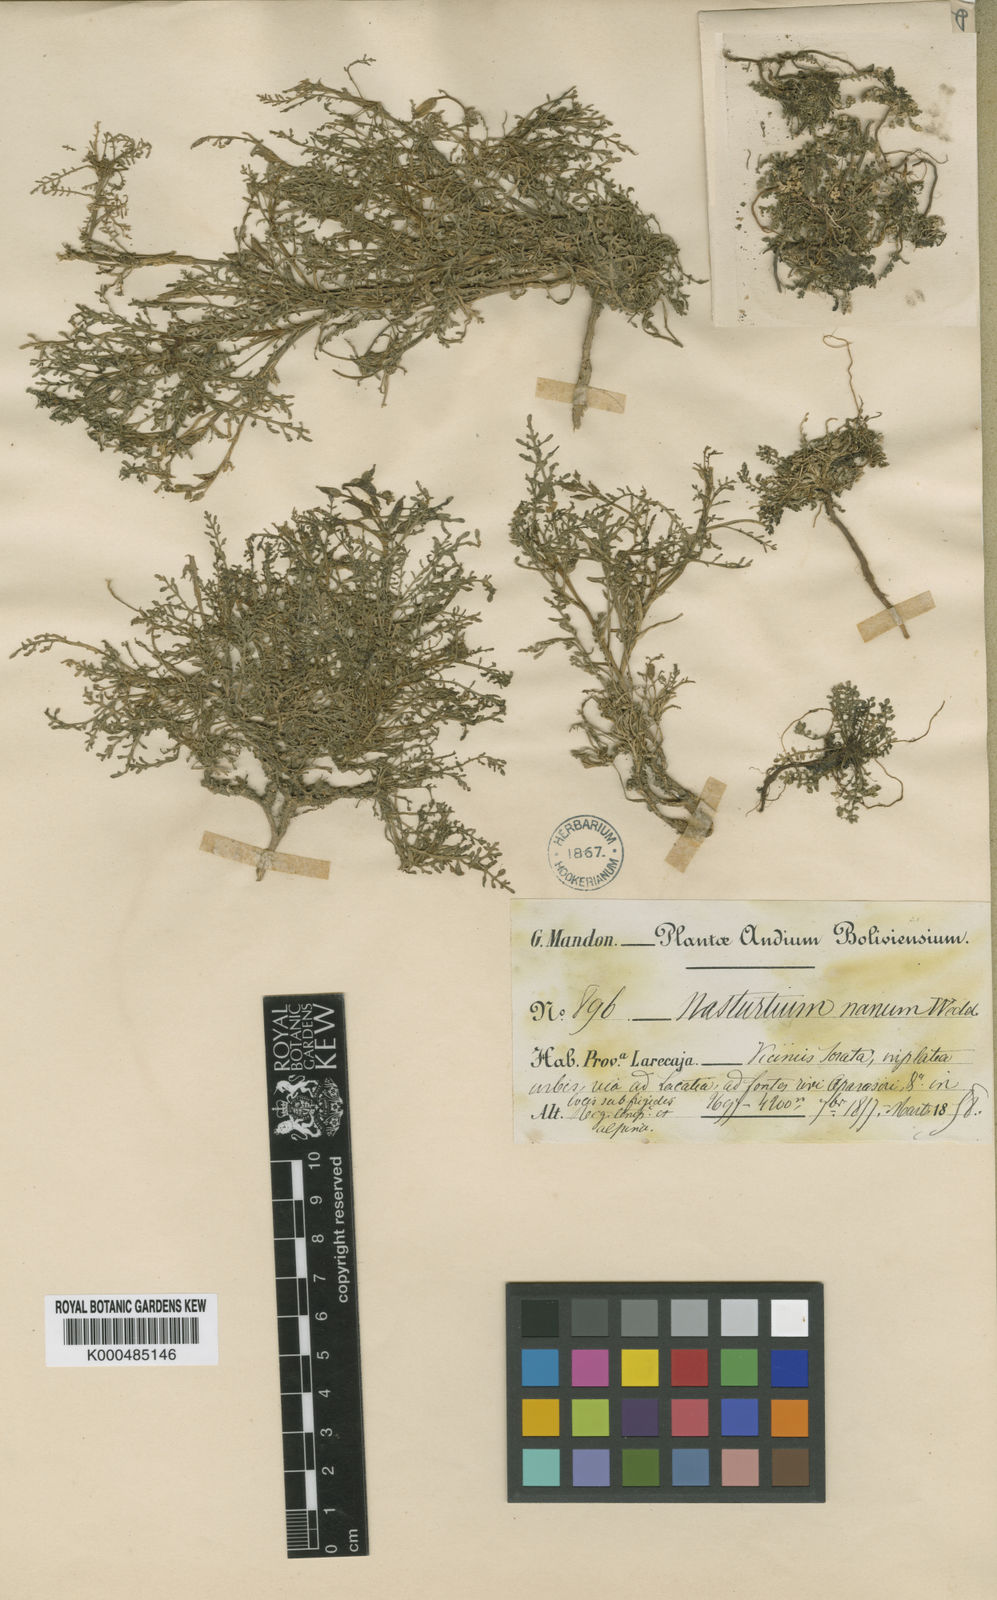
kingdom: Plantae
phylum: Tracheophyta
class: Magnoliopsida
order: Brassicales
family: Brassicaceae
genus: Rorippa
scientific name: Rorippa nana
